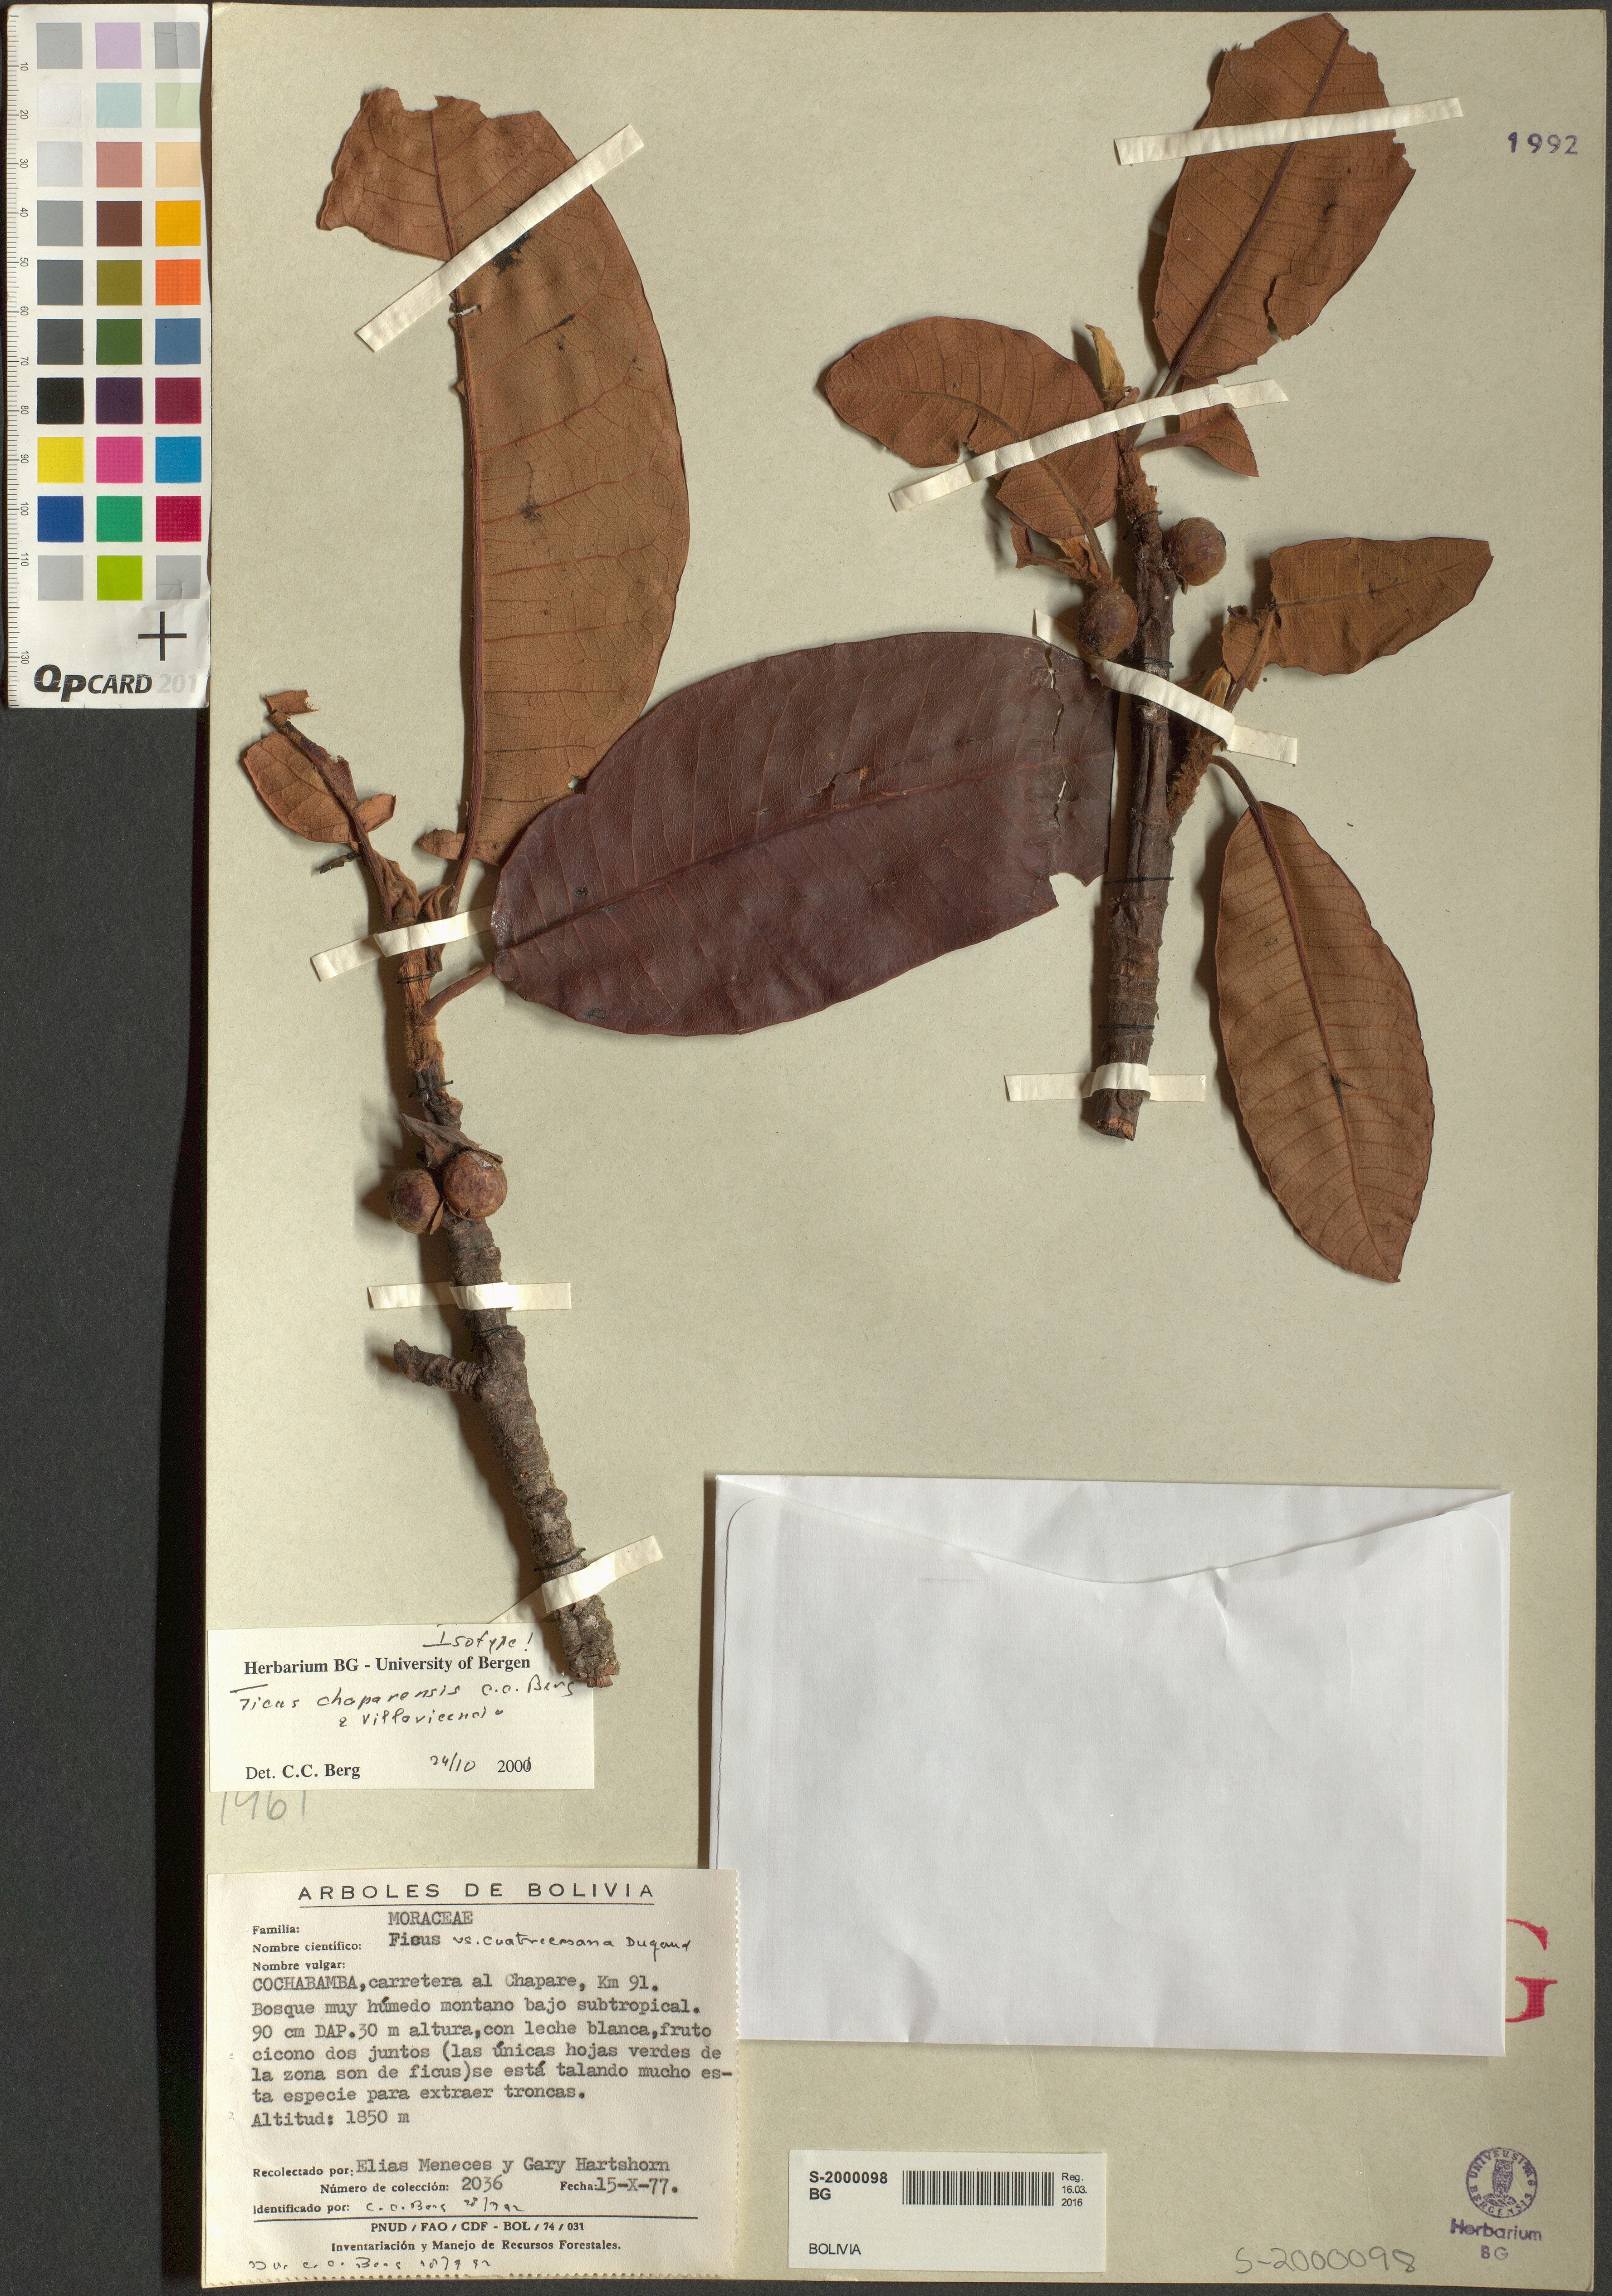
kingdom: Plantae
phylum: Tracheophyta
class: Magnoliopsida
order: Rosales
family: Moraceae
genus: Ficus
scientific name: Ficus chaparensis
